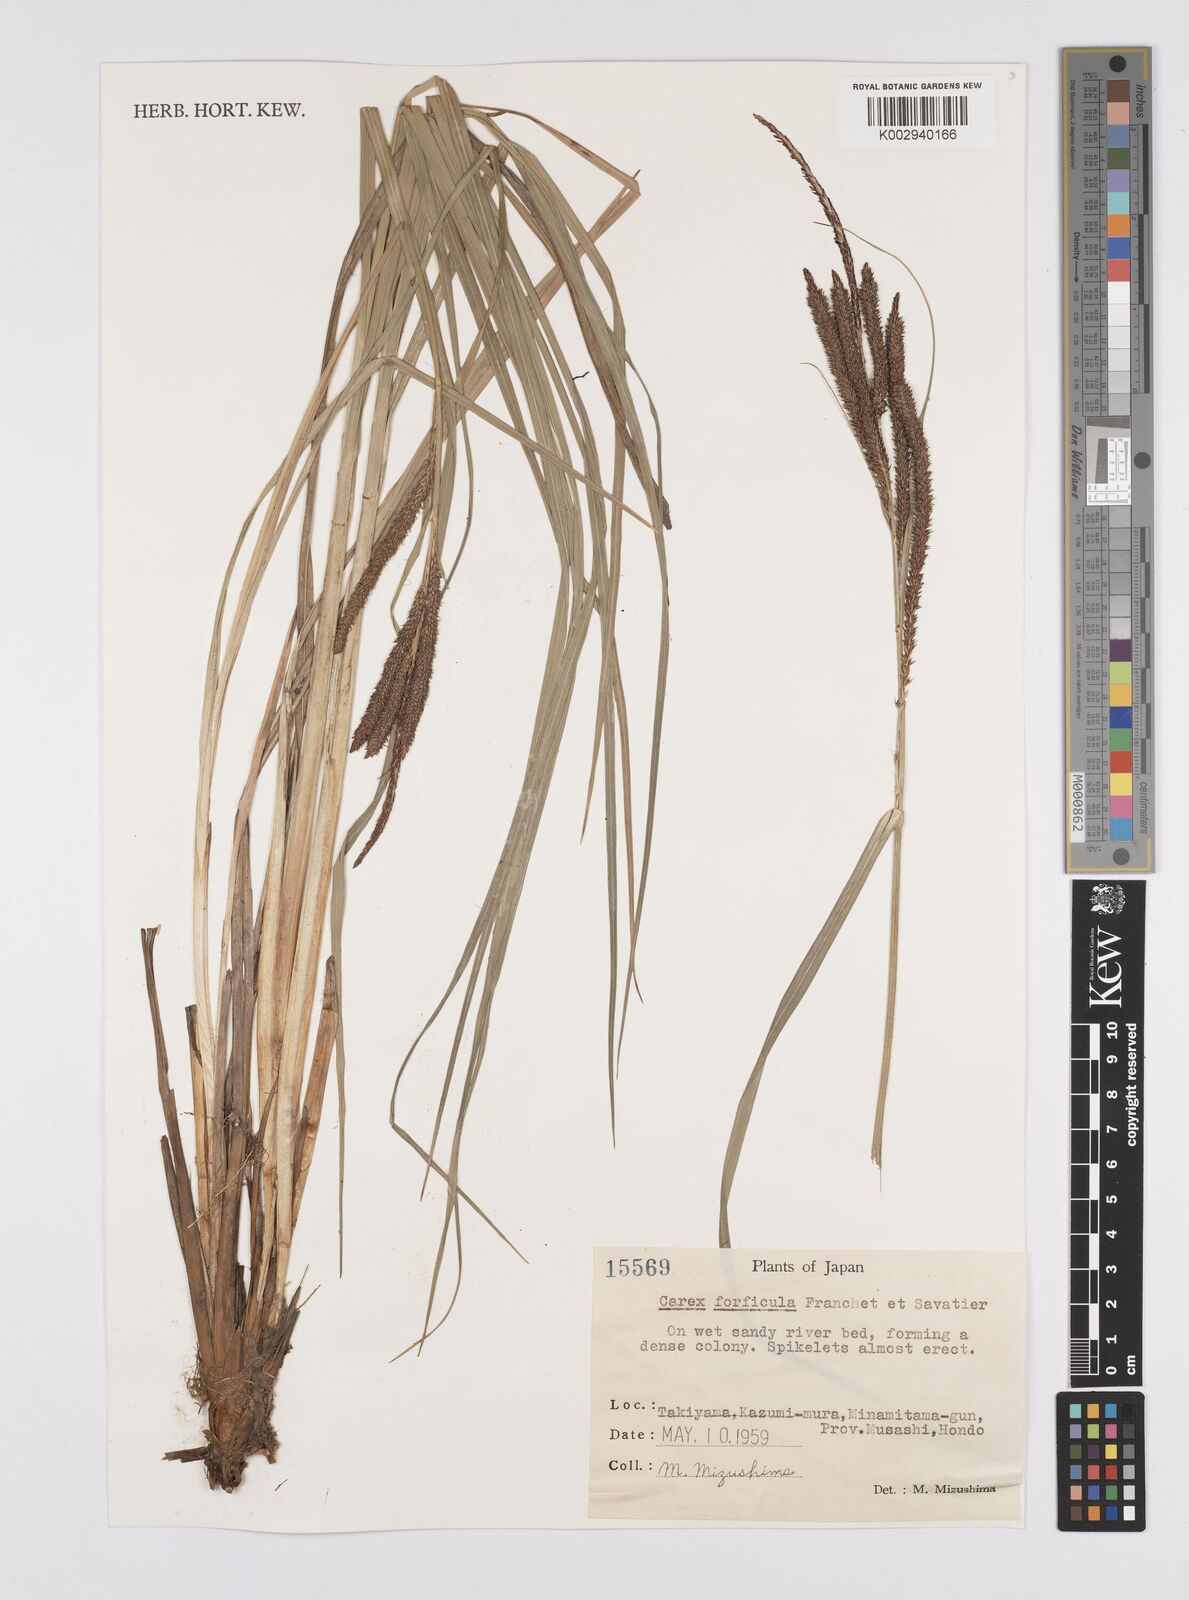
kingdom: Plantae
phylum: Tracheophyta
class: Liliopsida
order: Poales
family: Cyperaceae
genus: Carex
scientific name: Carex forficula
